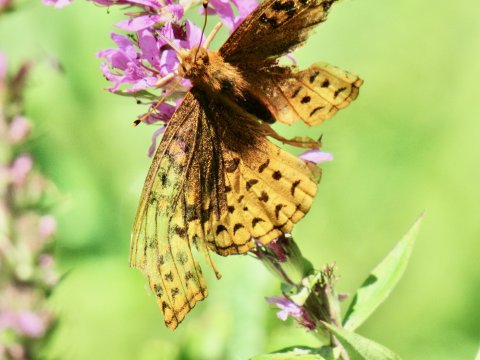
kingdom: Animalia
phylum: Arthropoda
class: Insecta
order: Lepidoptera
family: Nymphalidae
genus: Speyeria
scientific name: Speyeria cybele
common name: Great Spangled Fritillary
